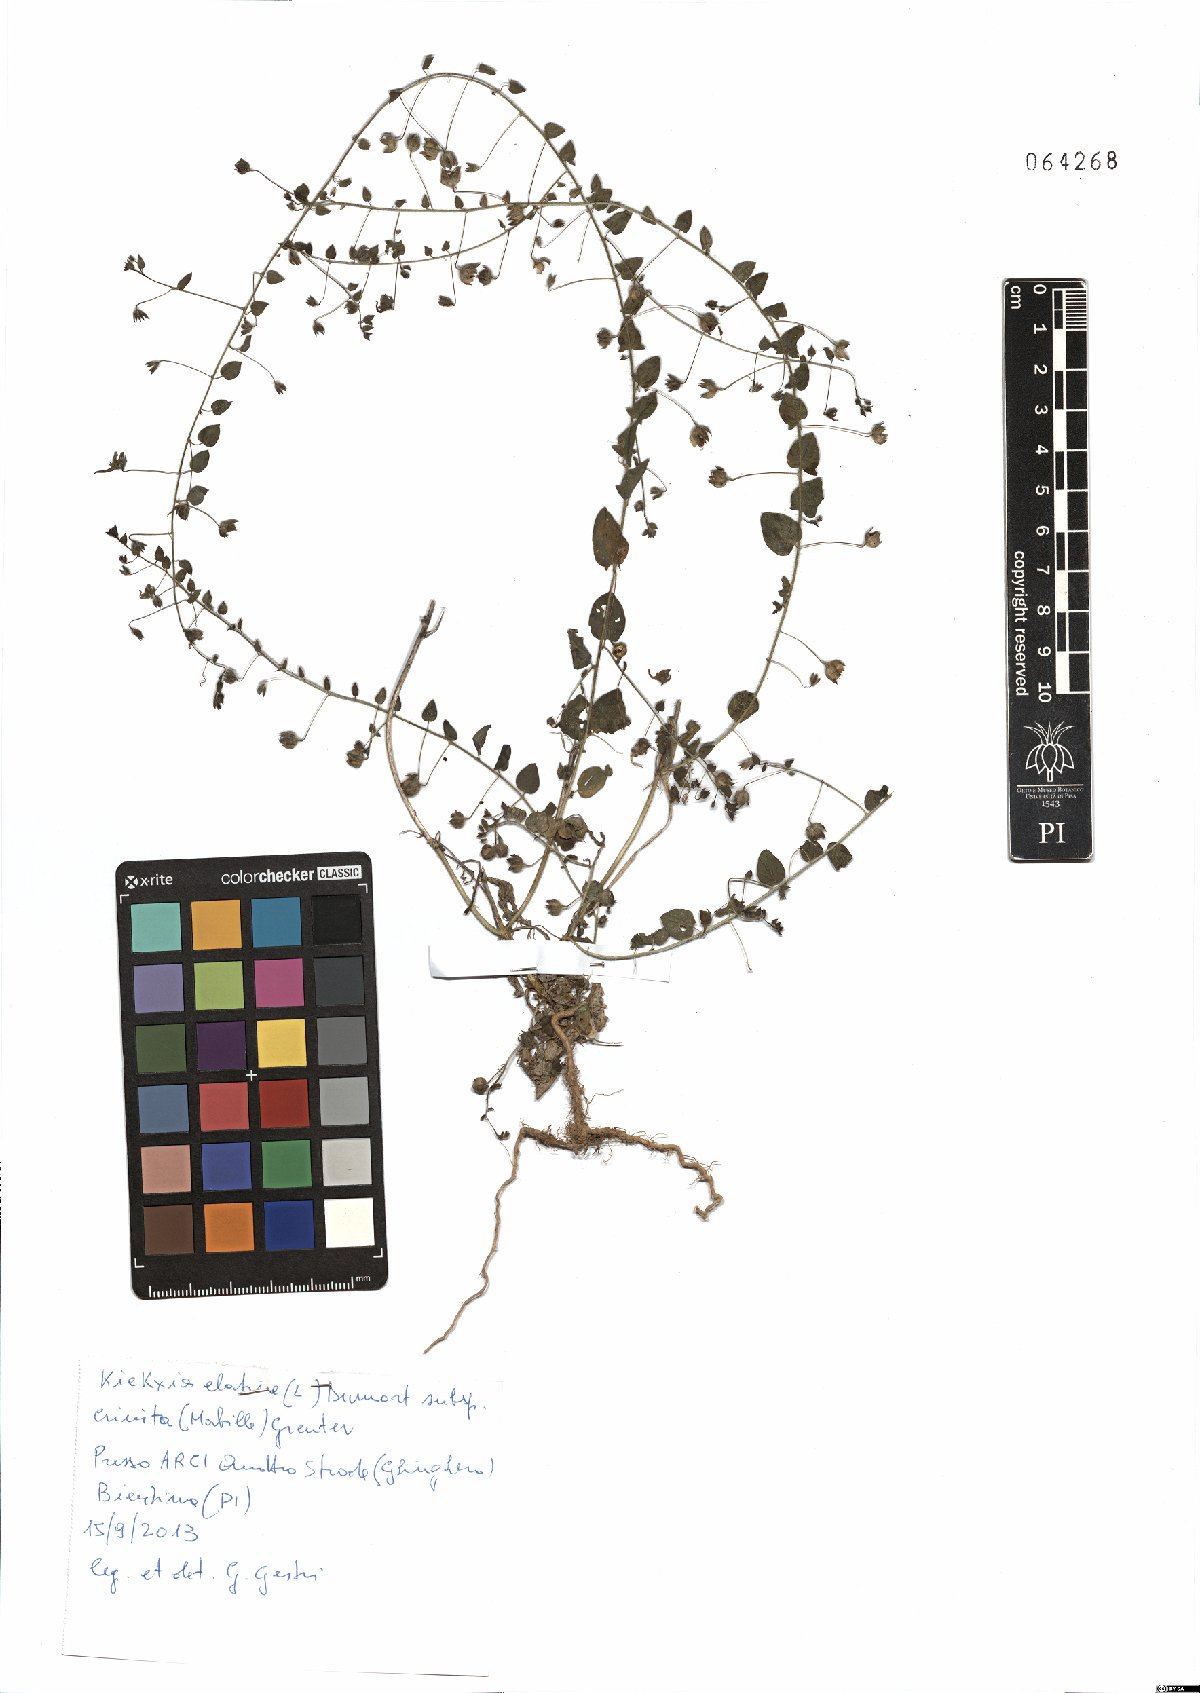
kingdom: Plantae
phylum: Tracheophyta
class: Magnoliopsida
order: Lamiales
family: Plantaginaceae
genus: Kickxia
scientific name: Kickxia elatine
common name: Sharp-leaved fluellen
